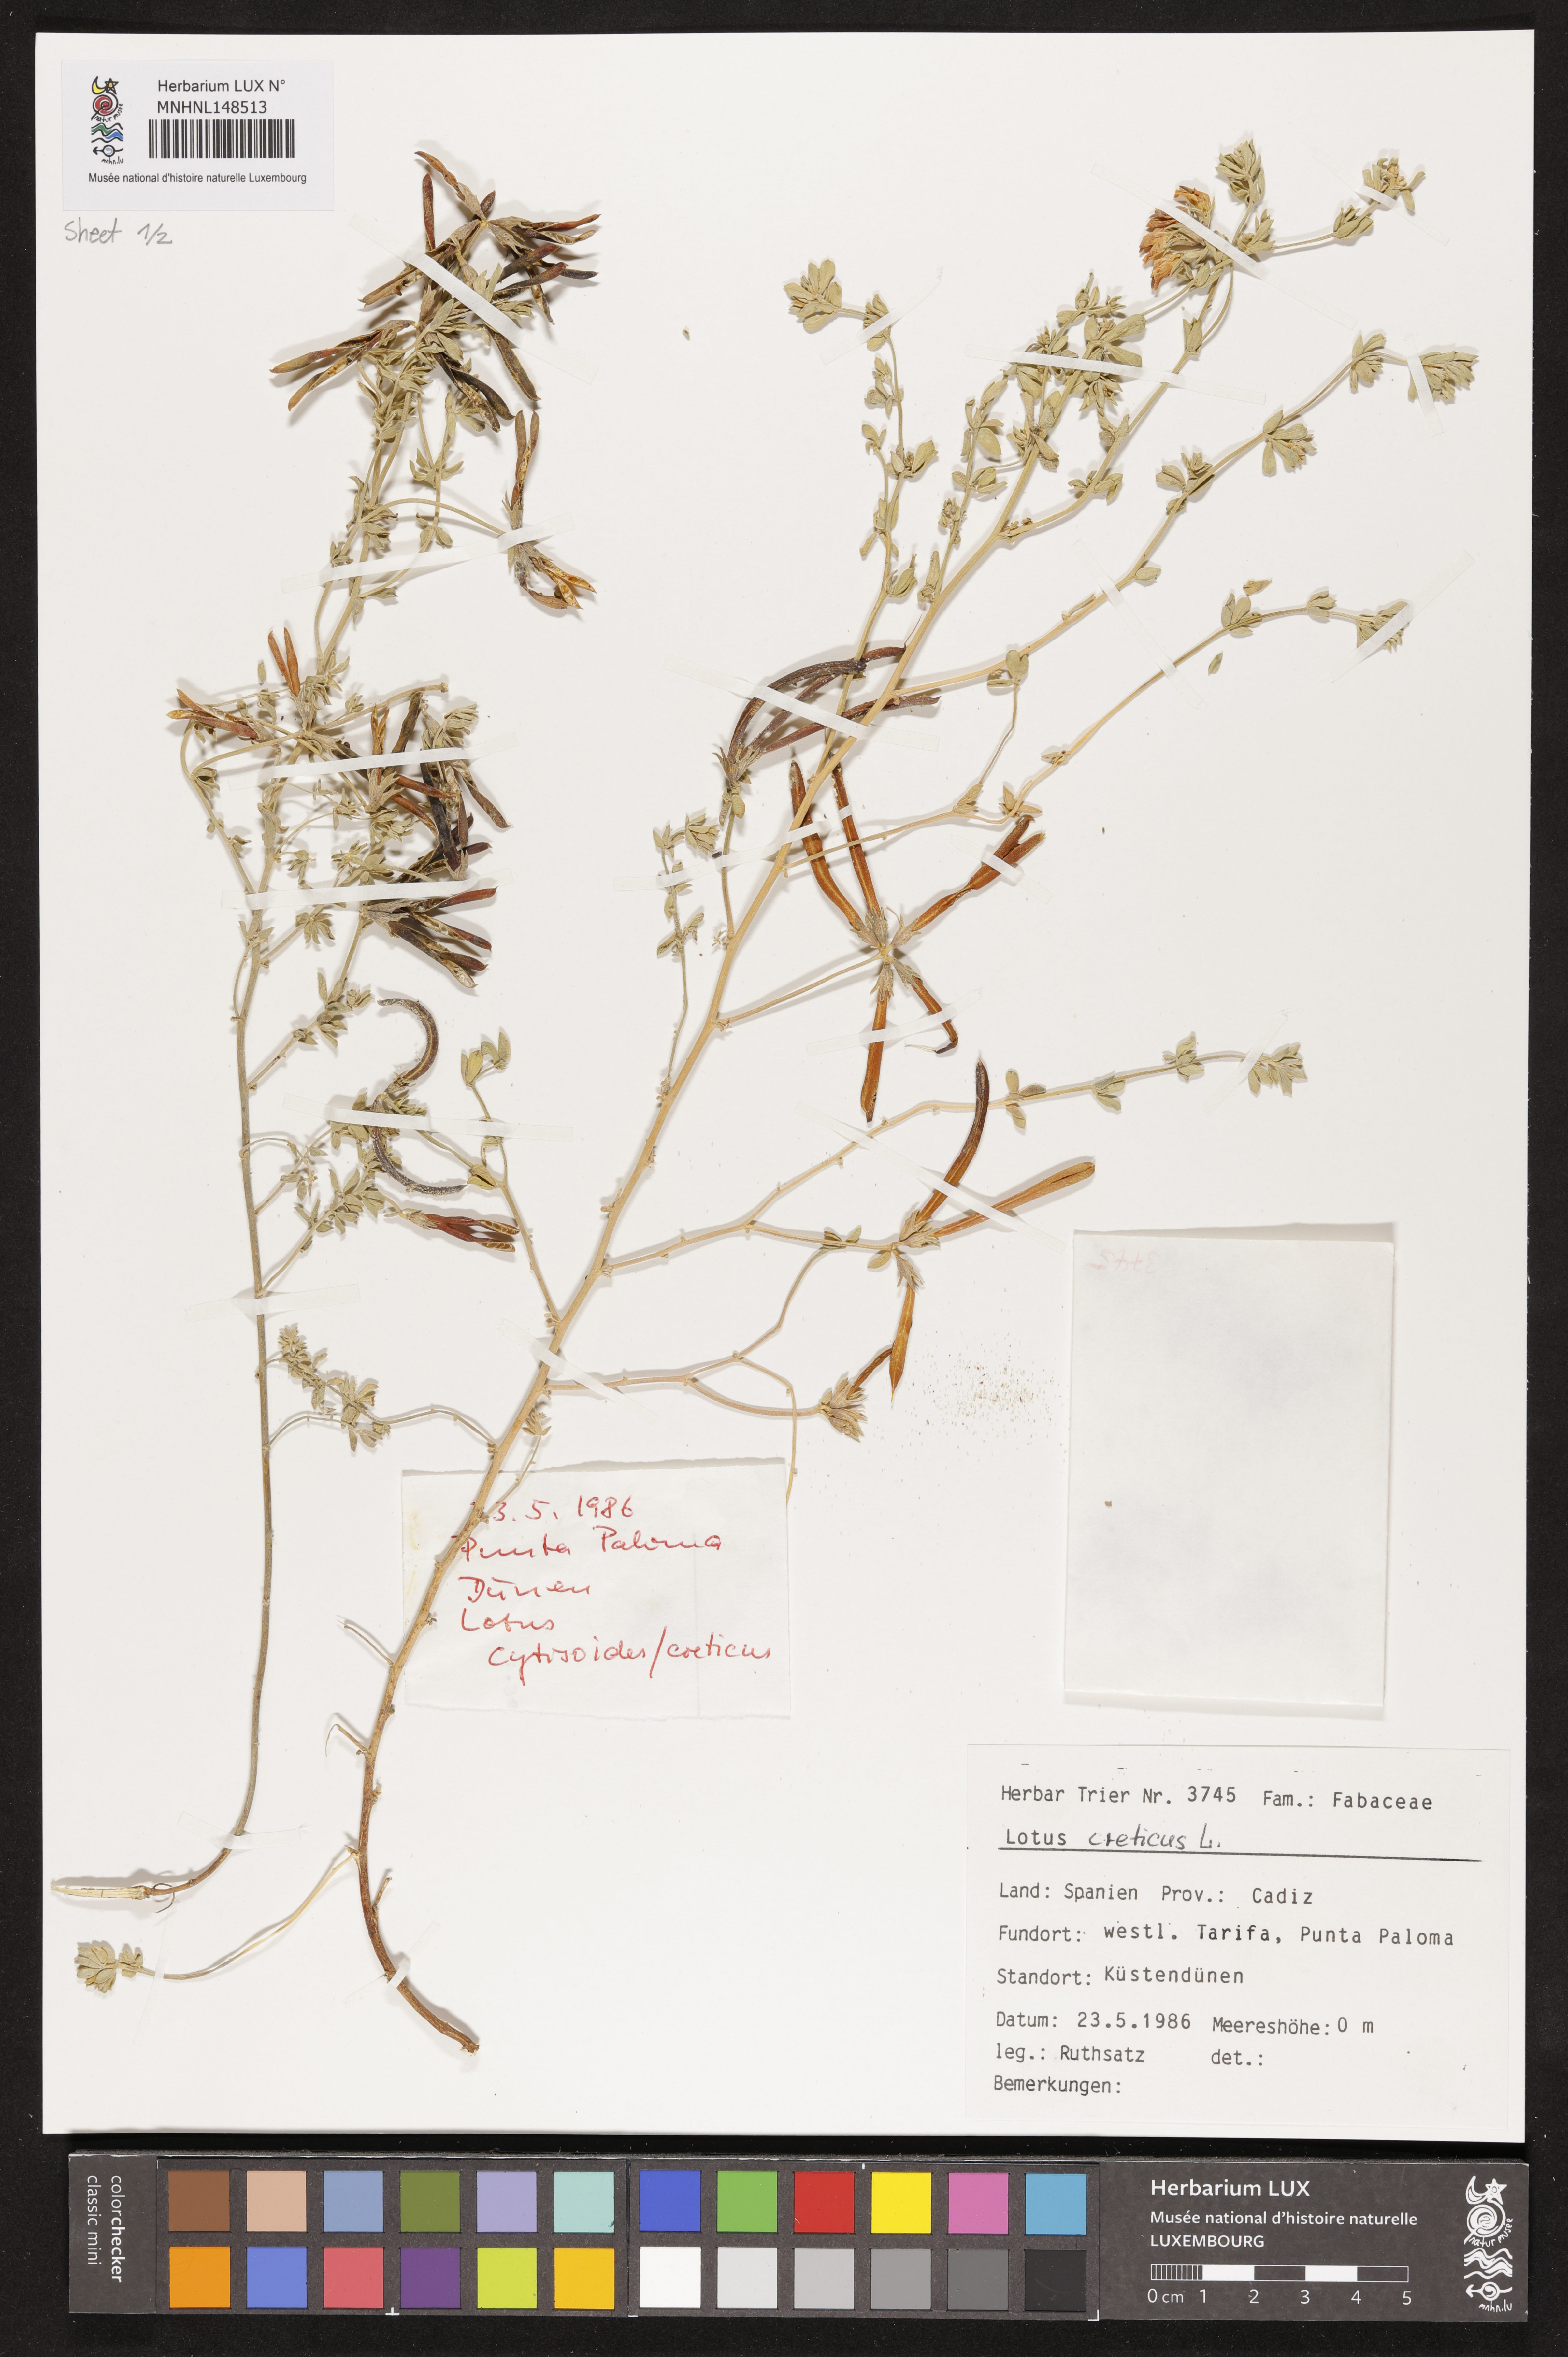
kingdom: Plantae
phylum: Tracheophyta
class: Magnoliopsida
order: Fabales
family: Fabaceae
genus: Lotus
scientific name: Lotus creticus
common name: Cretan bird's-foot trefoil
